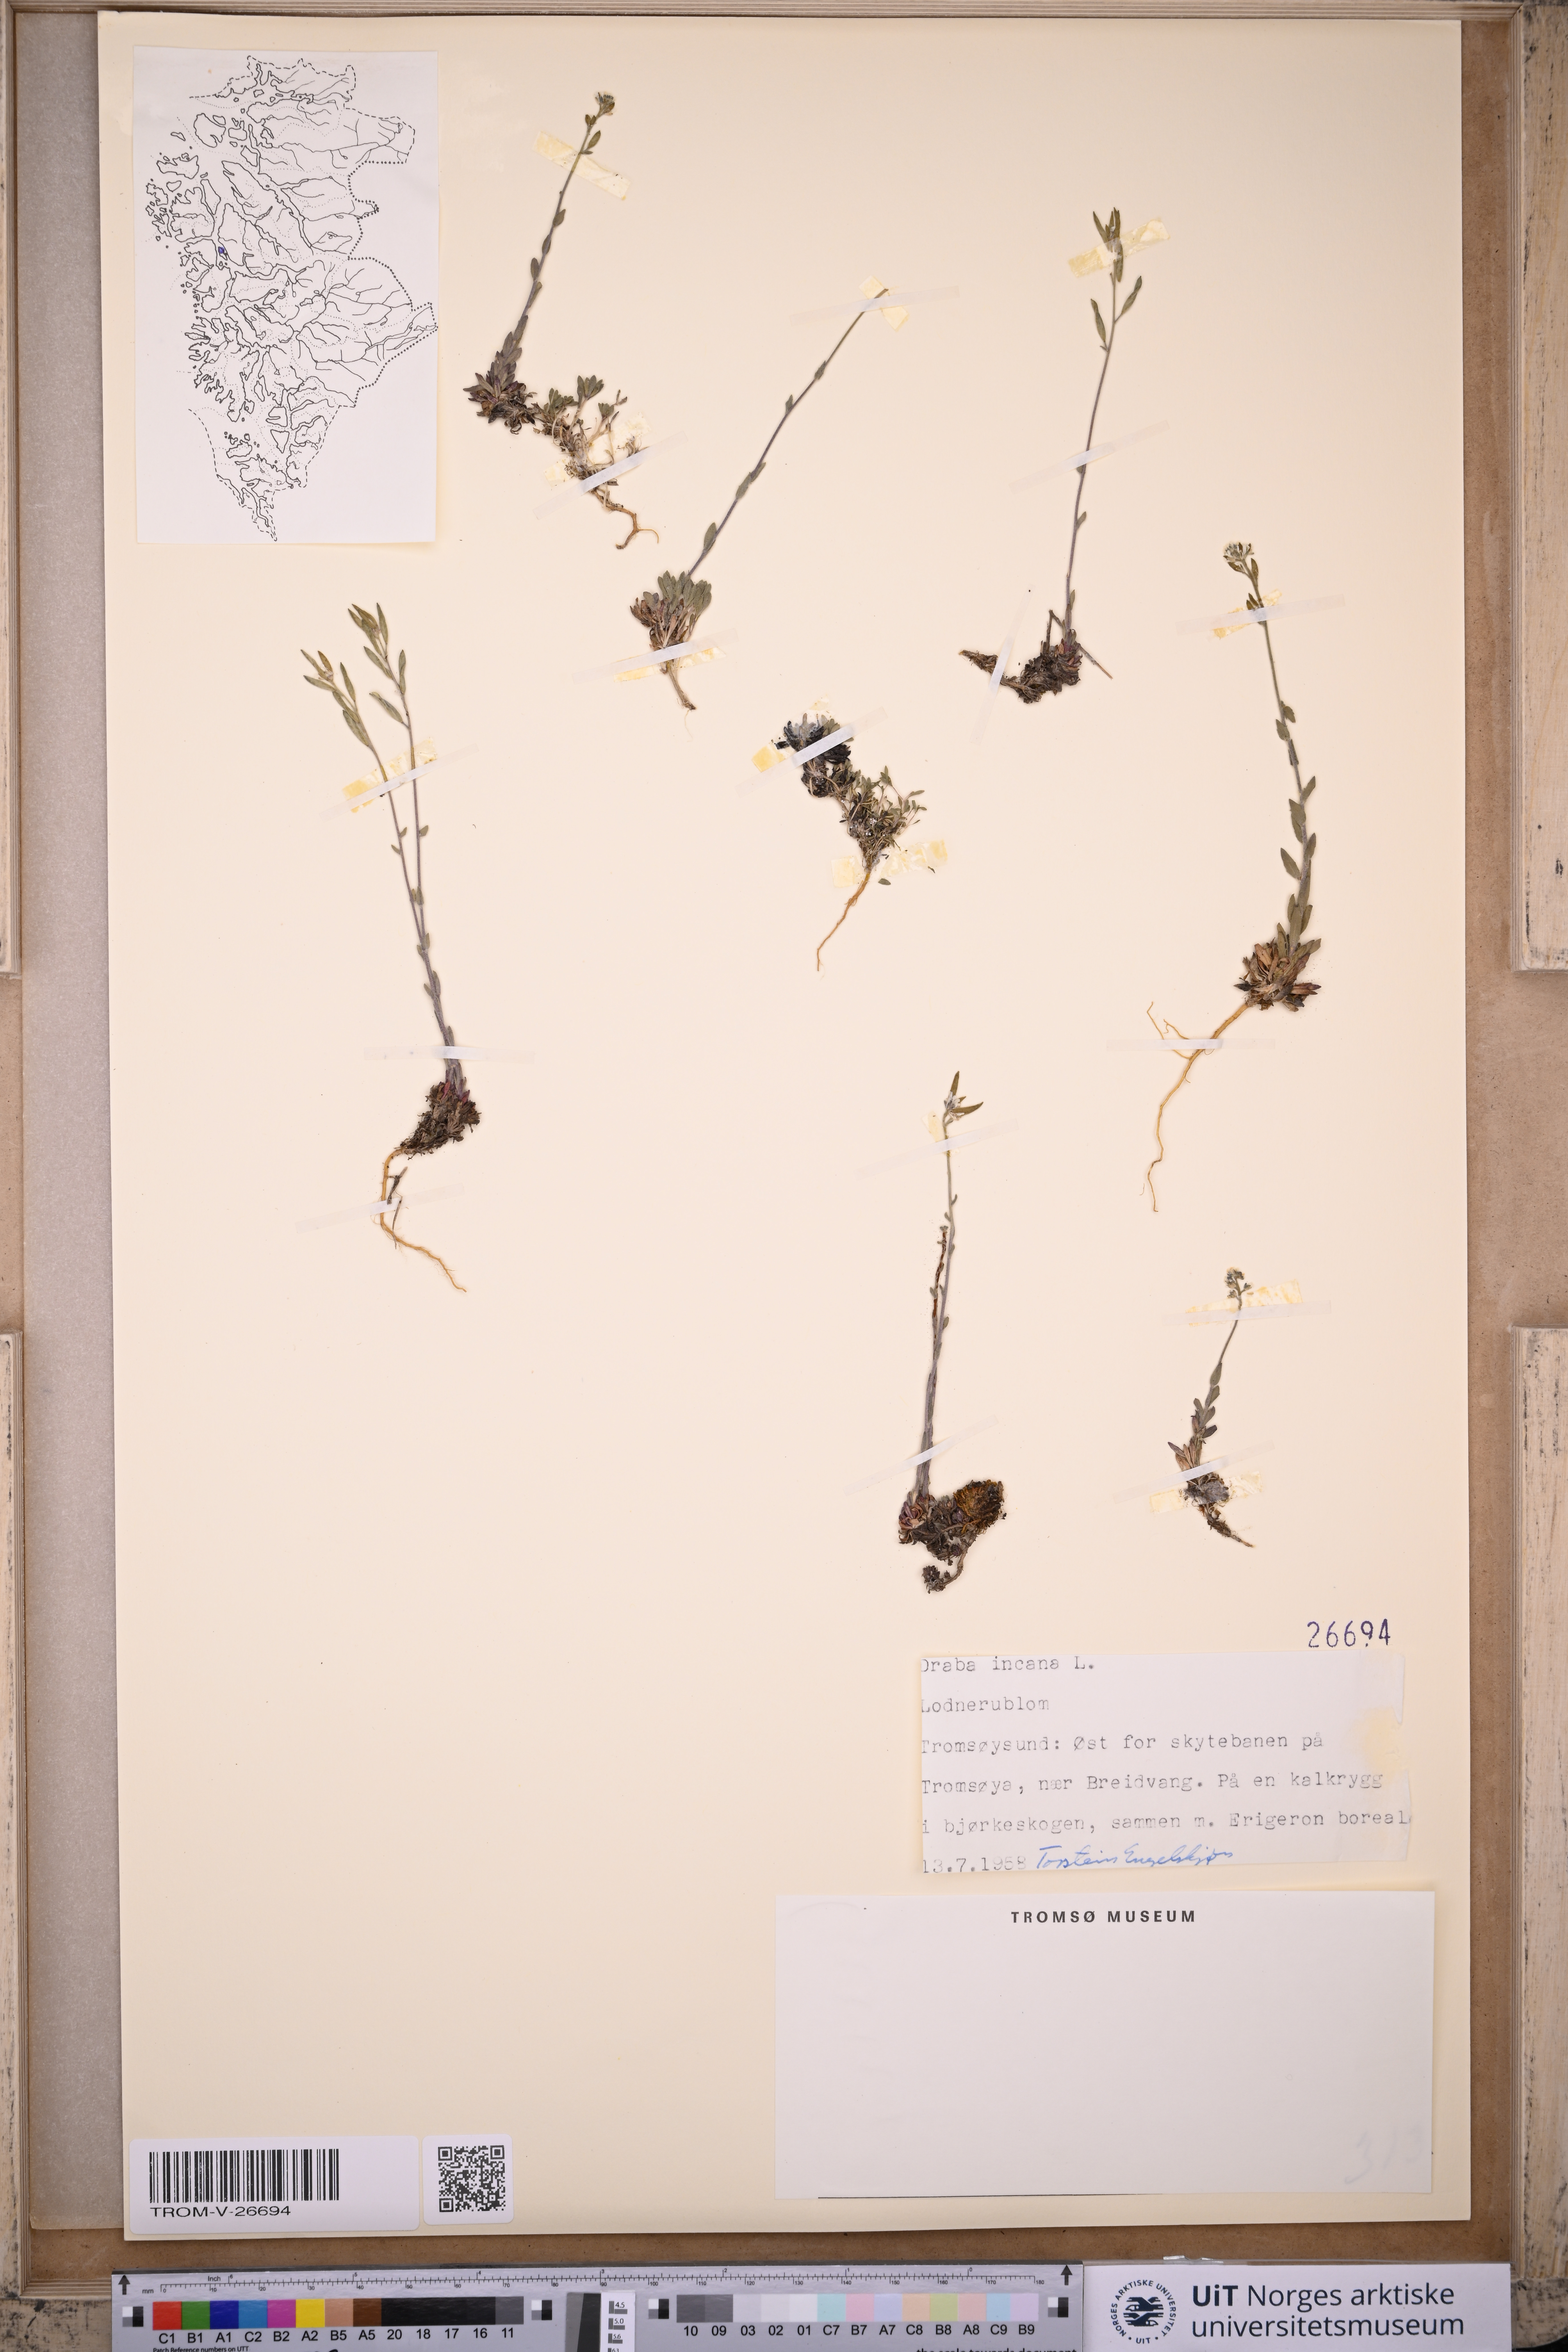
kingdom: Plantae
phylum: Tracheophyta
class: Magnoliopsida
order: Brassicales
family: Brassicaceae
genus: Draba
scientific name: Draba incana
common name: Hoary whitlow-grass
